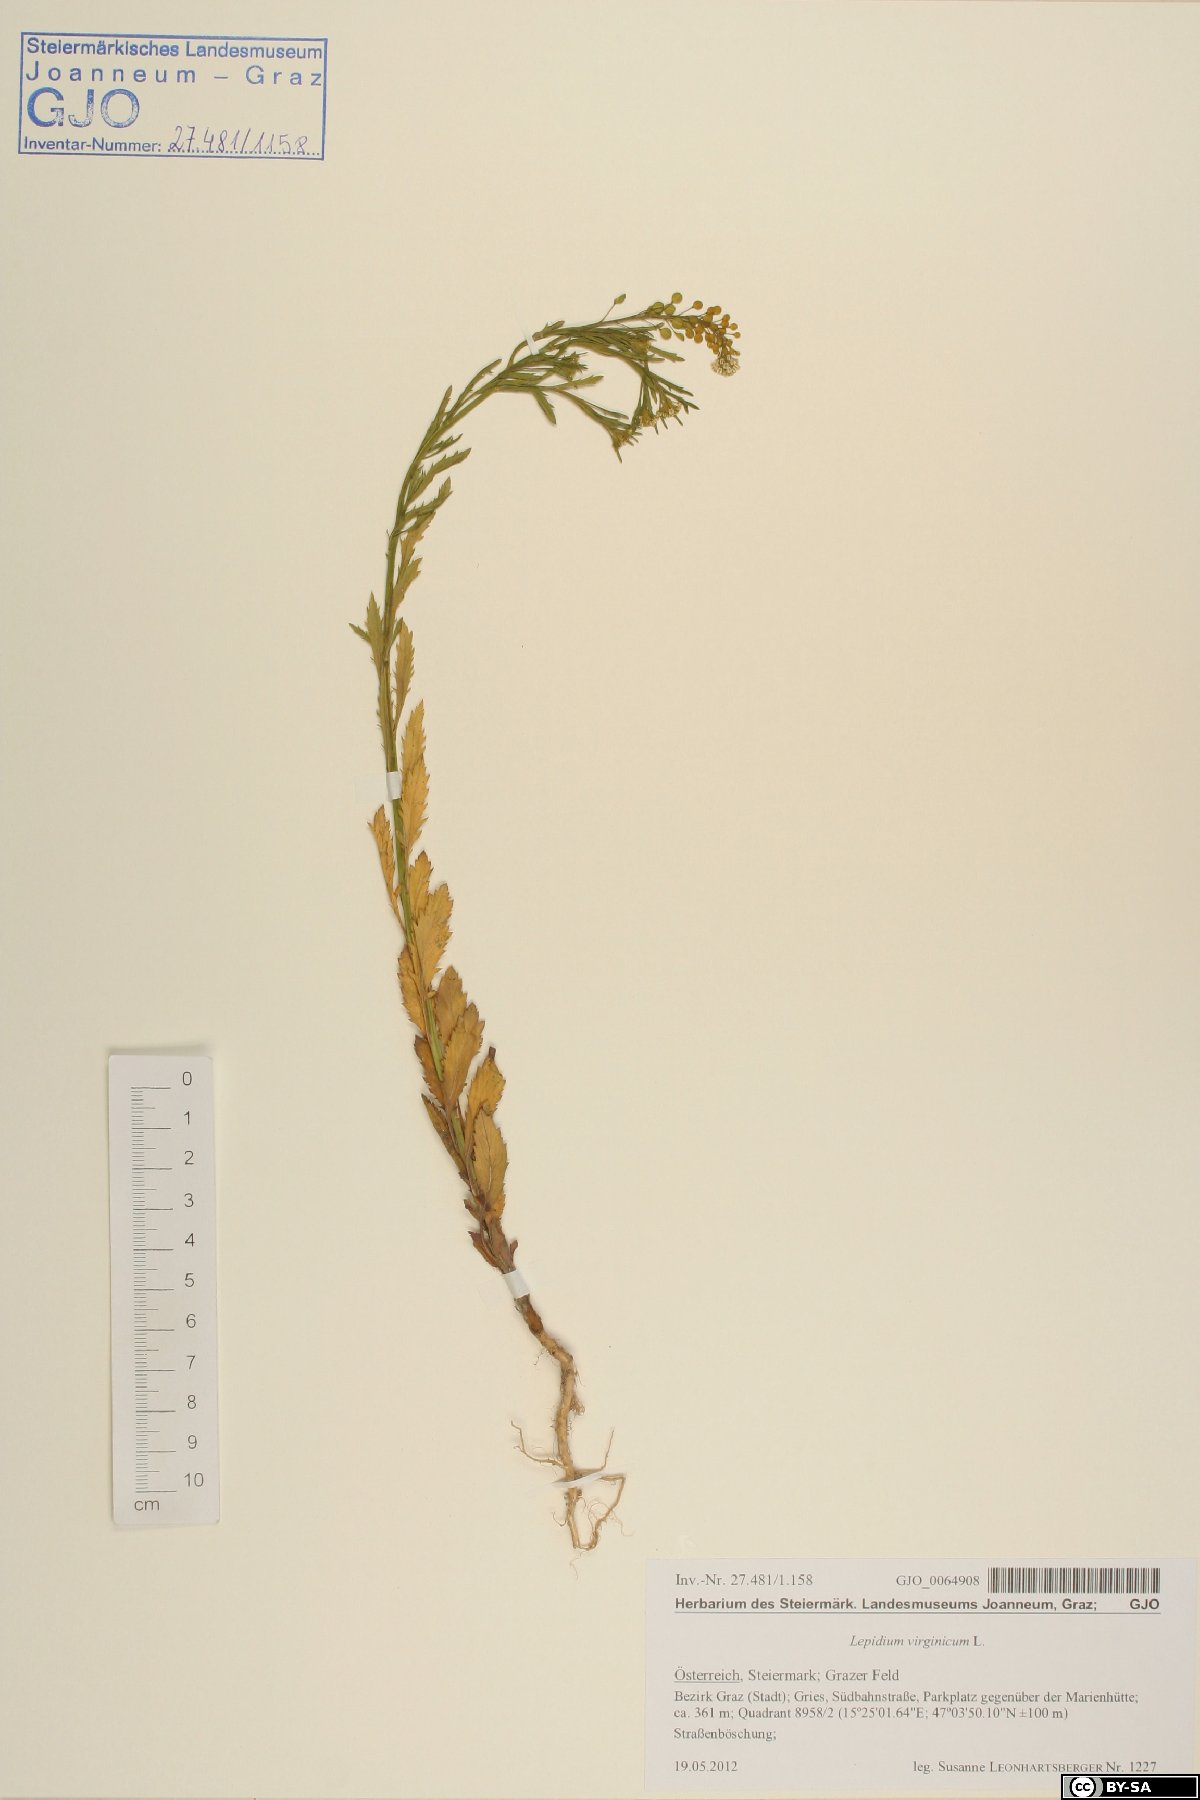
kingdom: Plantae
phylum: Tracheophyta
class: Magnoliopsida
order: Brassicales
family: Brassicaceae
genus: Lepidium
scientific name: Lepidium virginicum
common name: Least pepperwort
